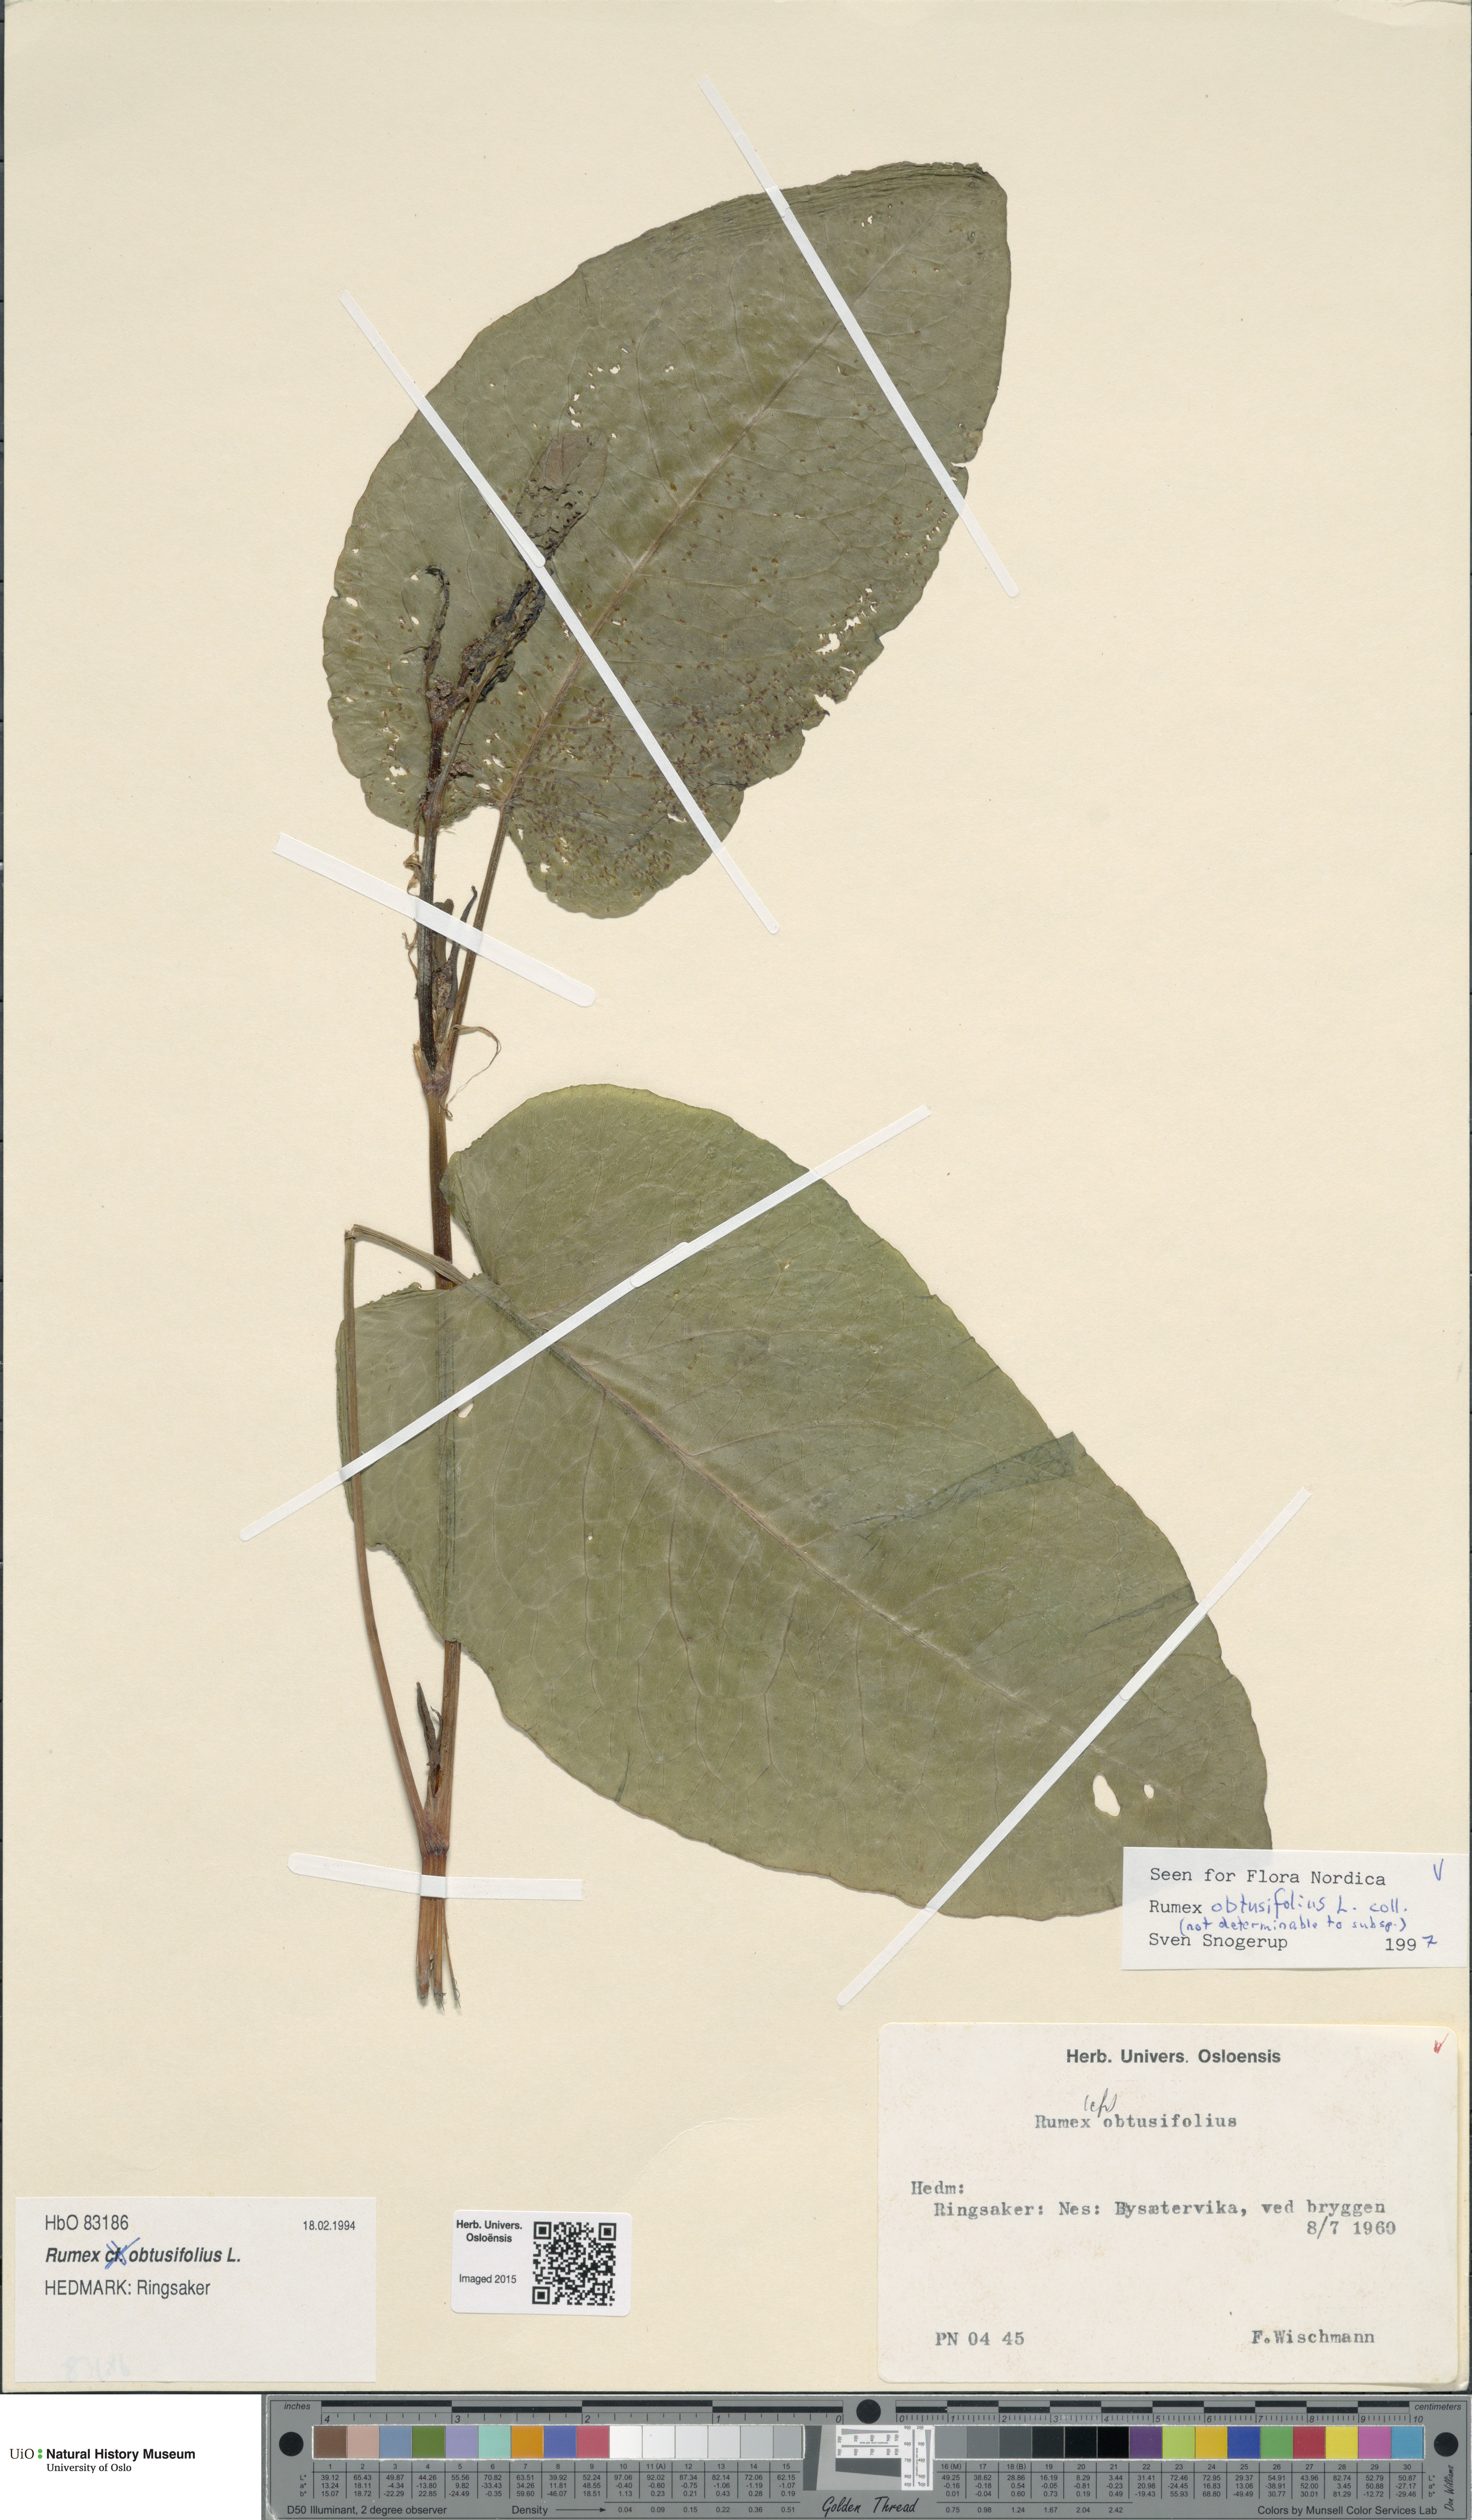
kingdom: Plantae
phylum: Tracheophyta
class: Magnoliopsida
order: Caryophyllales
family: Polygonaceae
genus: Rumex
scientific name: Rumex obtusifolius
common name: Bitter dock
